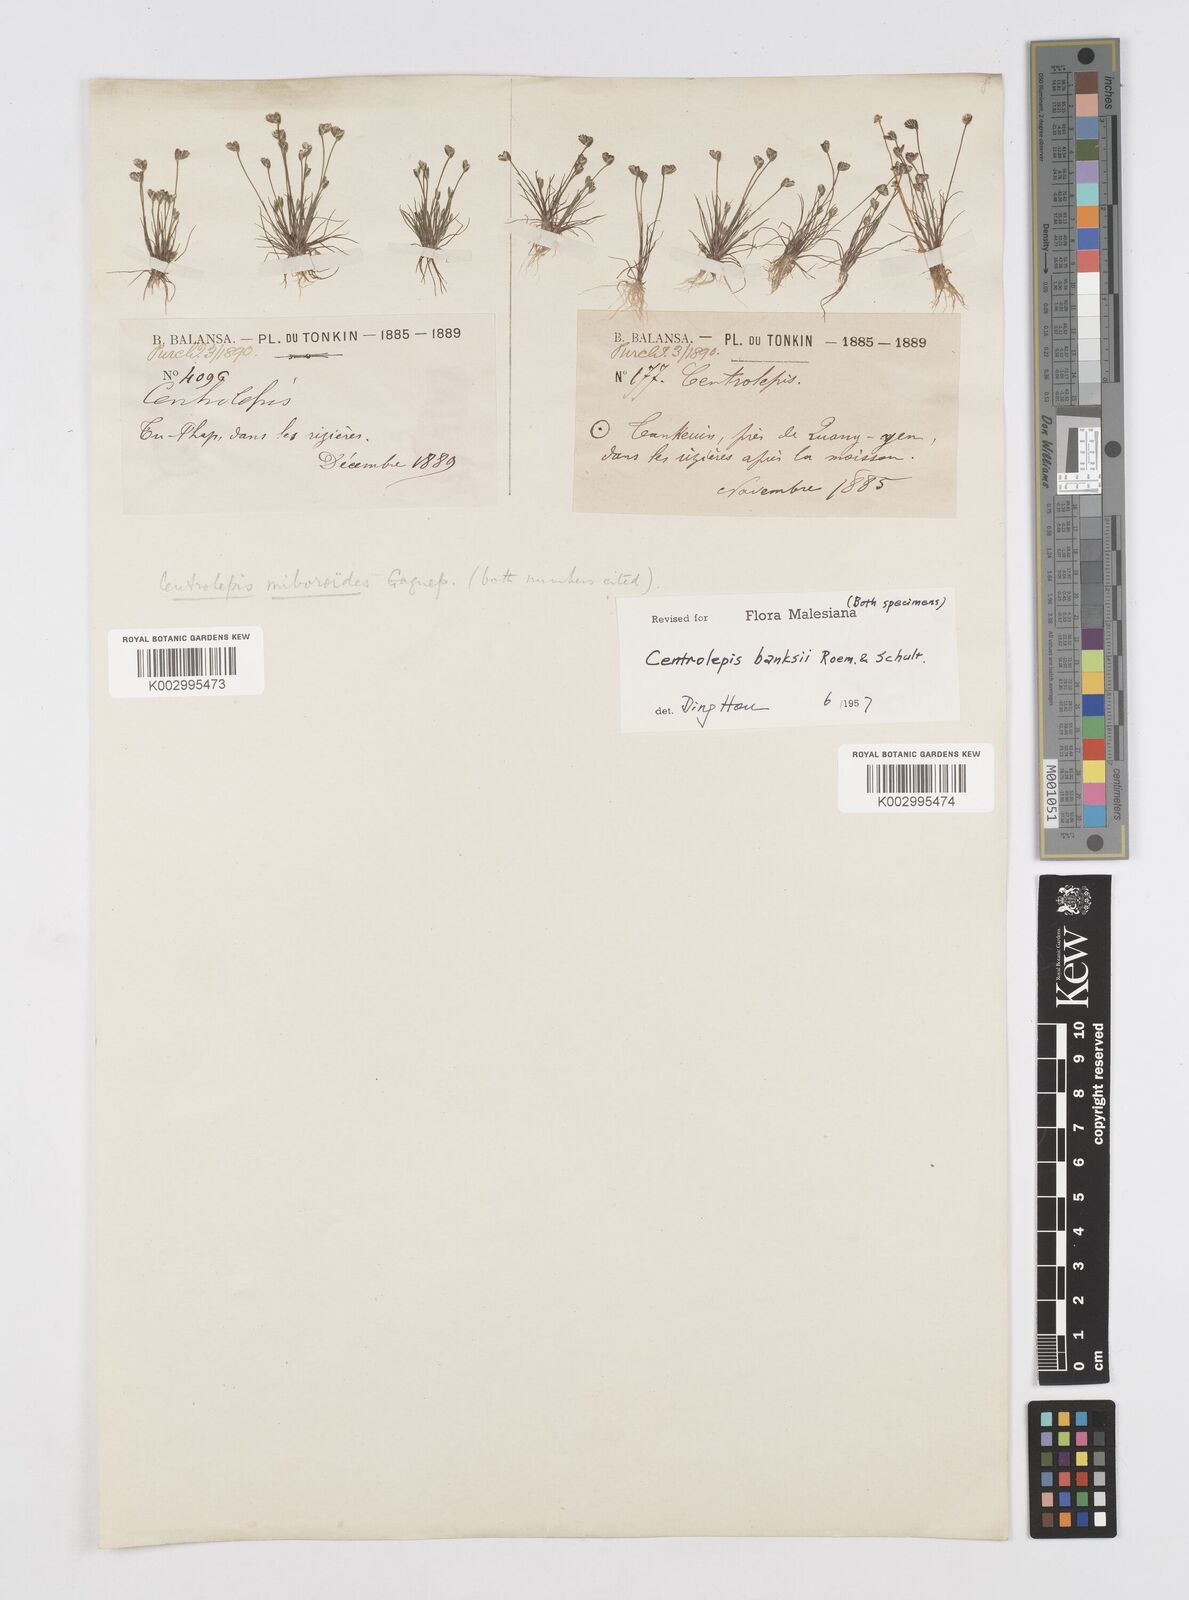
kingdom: Plantae
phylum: Tracheophyta
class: Liliopsida
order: Poales
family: Restionaceae
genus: Centrolepis
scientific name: Centrolepis banksii
